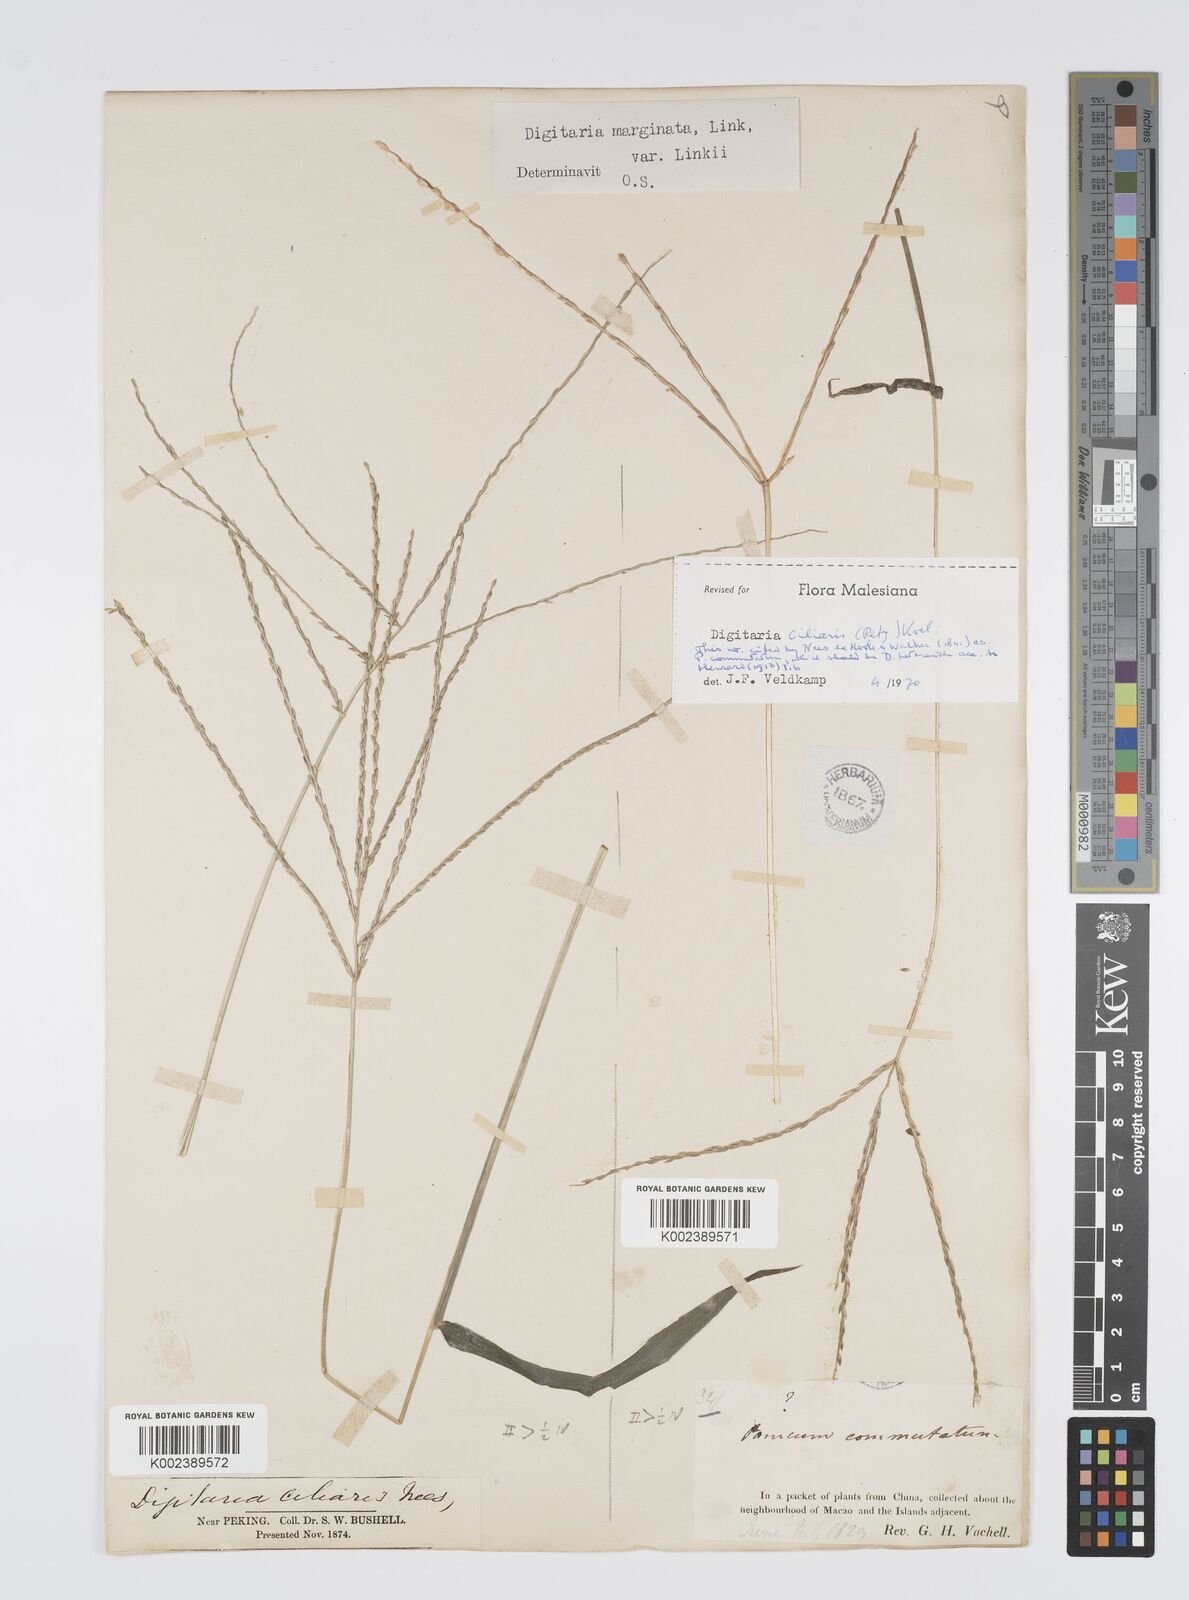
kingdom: Plantae
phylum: Tracheophyta
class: Liliopsida
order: Poales
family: Poaceae
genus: Digitaria
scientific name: Digitaria ciliaris
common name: Tropical finger-grass
